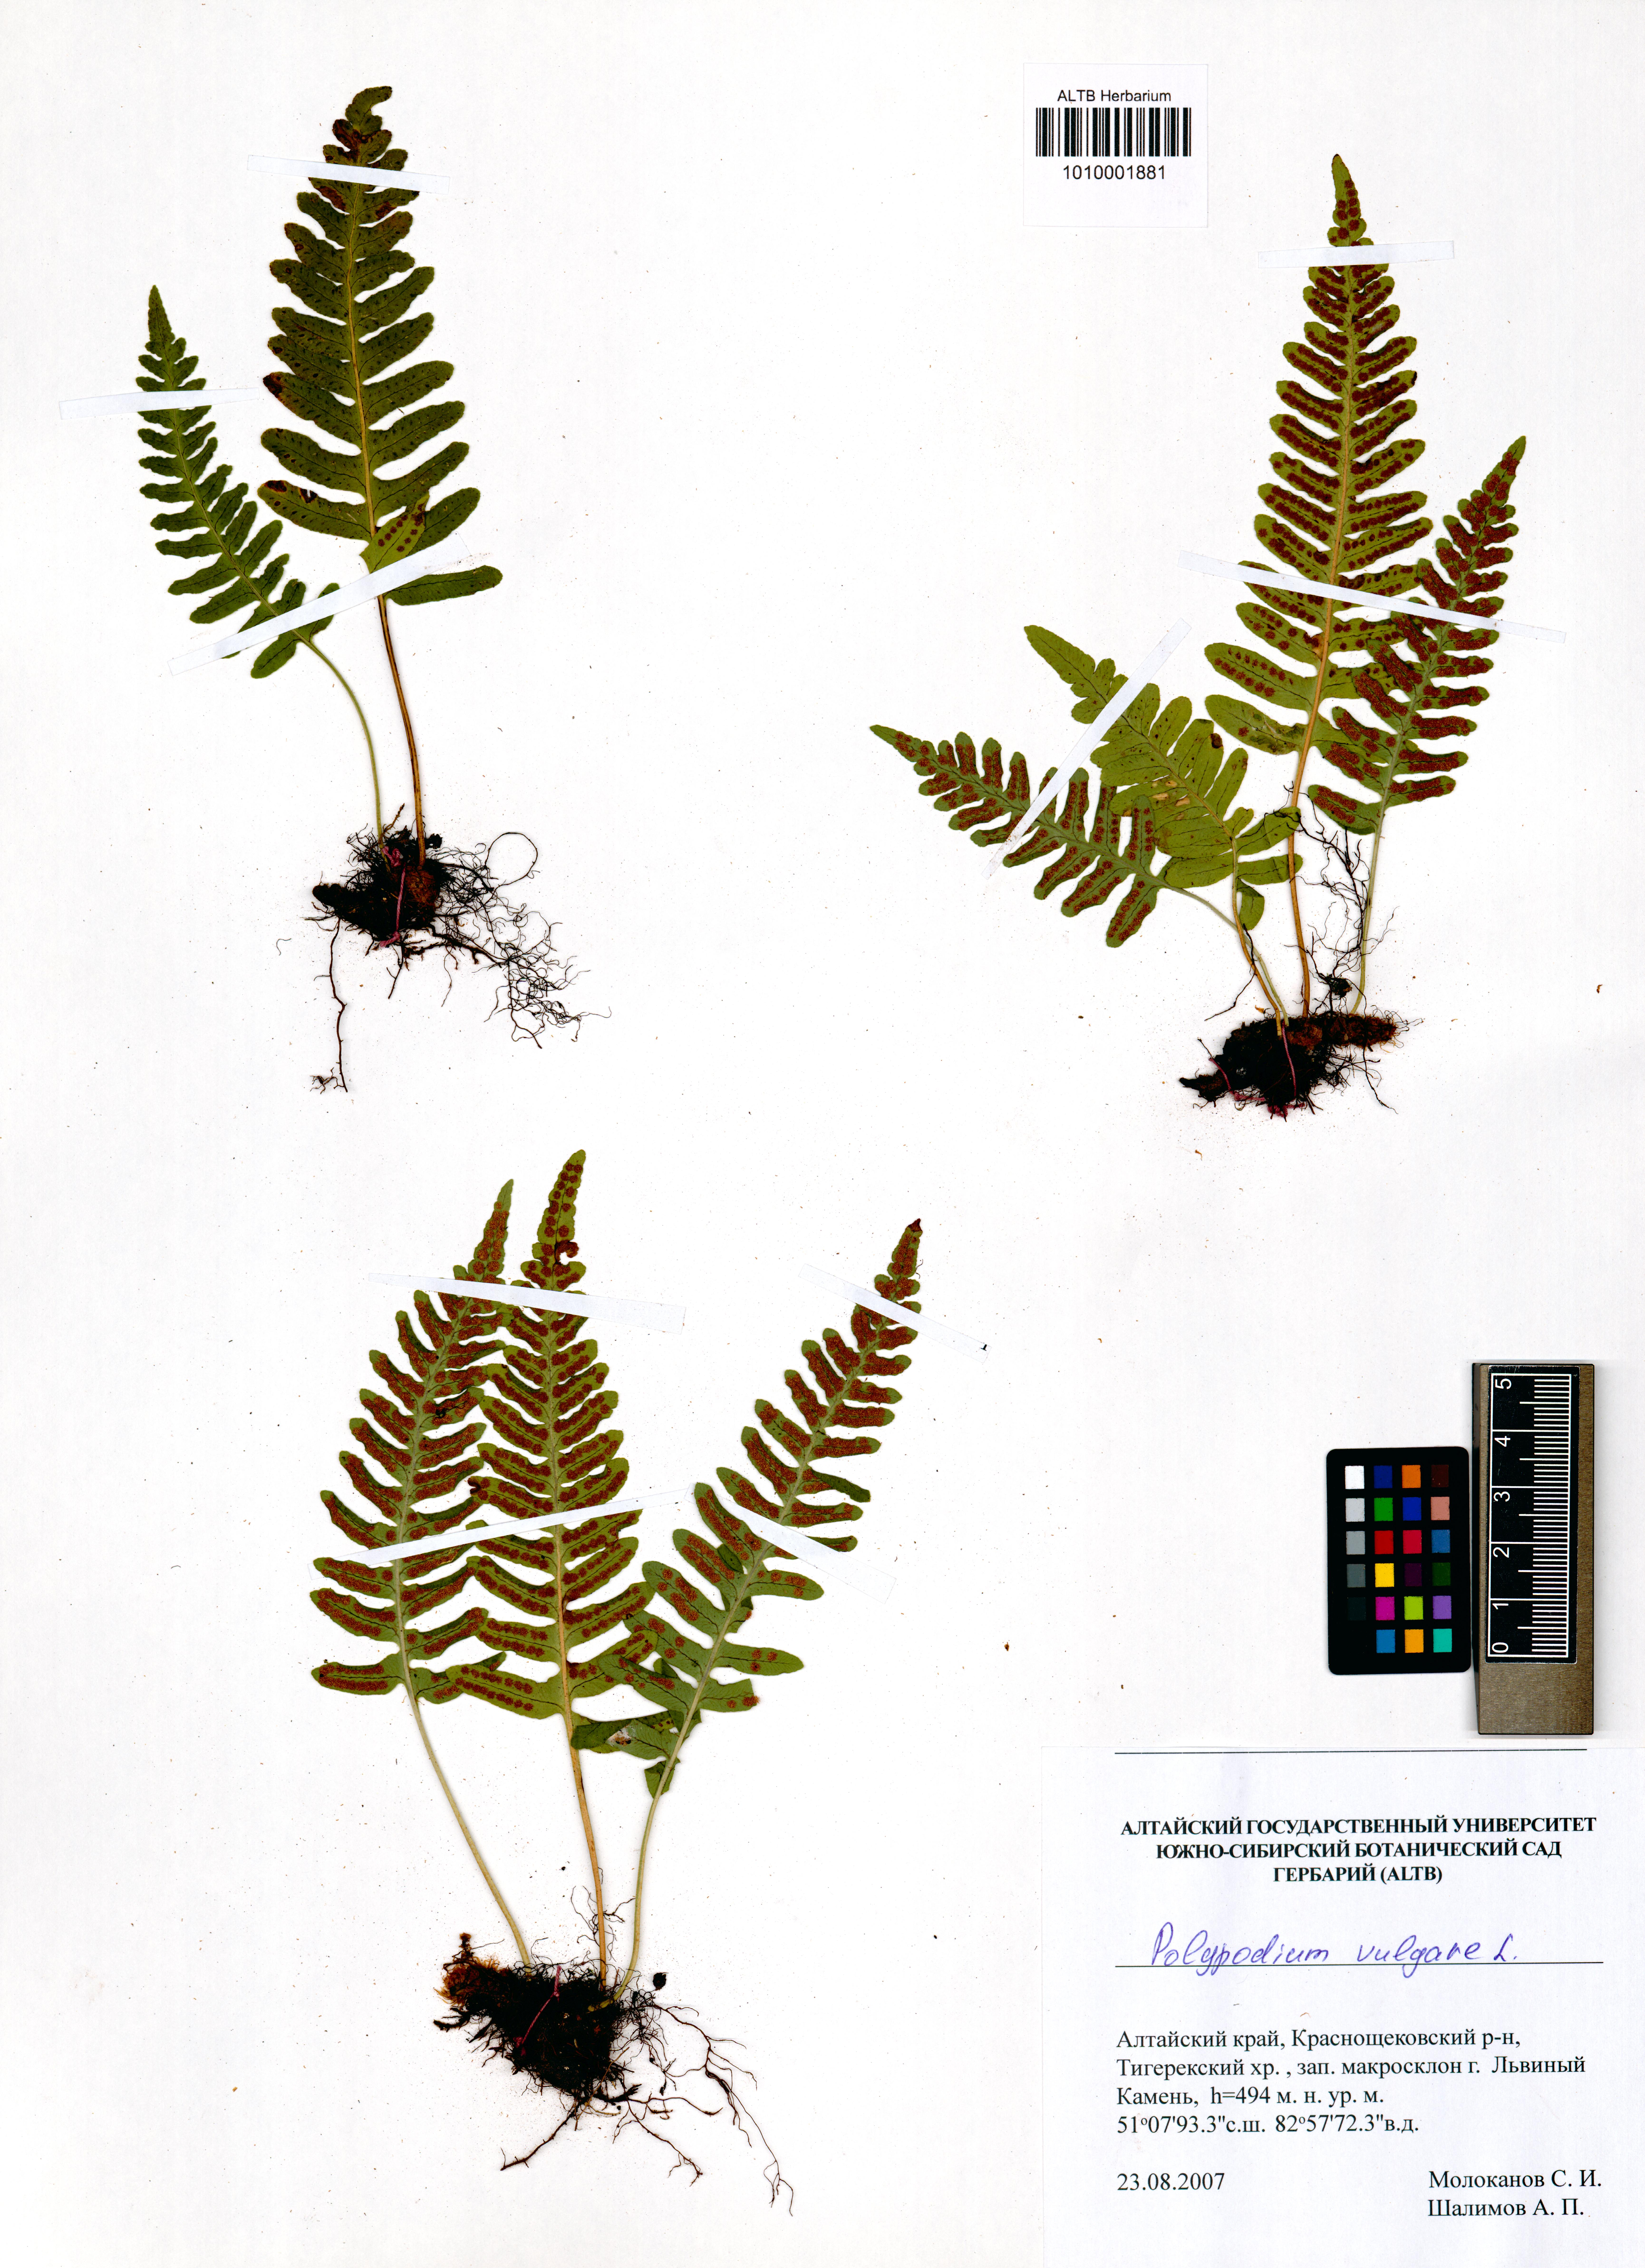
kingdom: Plantae
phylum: Tracheophyta
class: Polypodiopsida
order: Polypodiales
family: Polypodiaceae
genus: Polypodium
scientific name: Polypodium vulgare
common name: Common polypody
